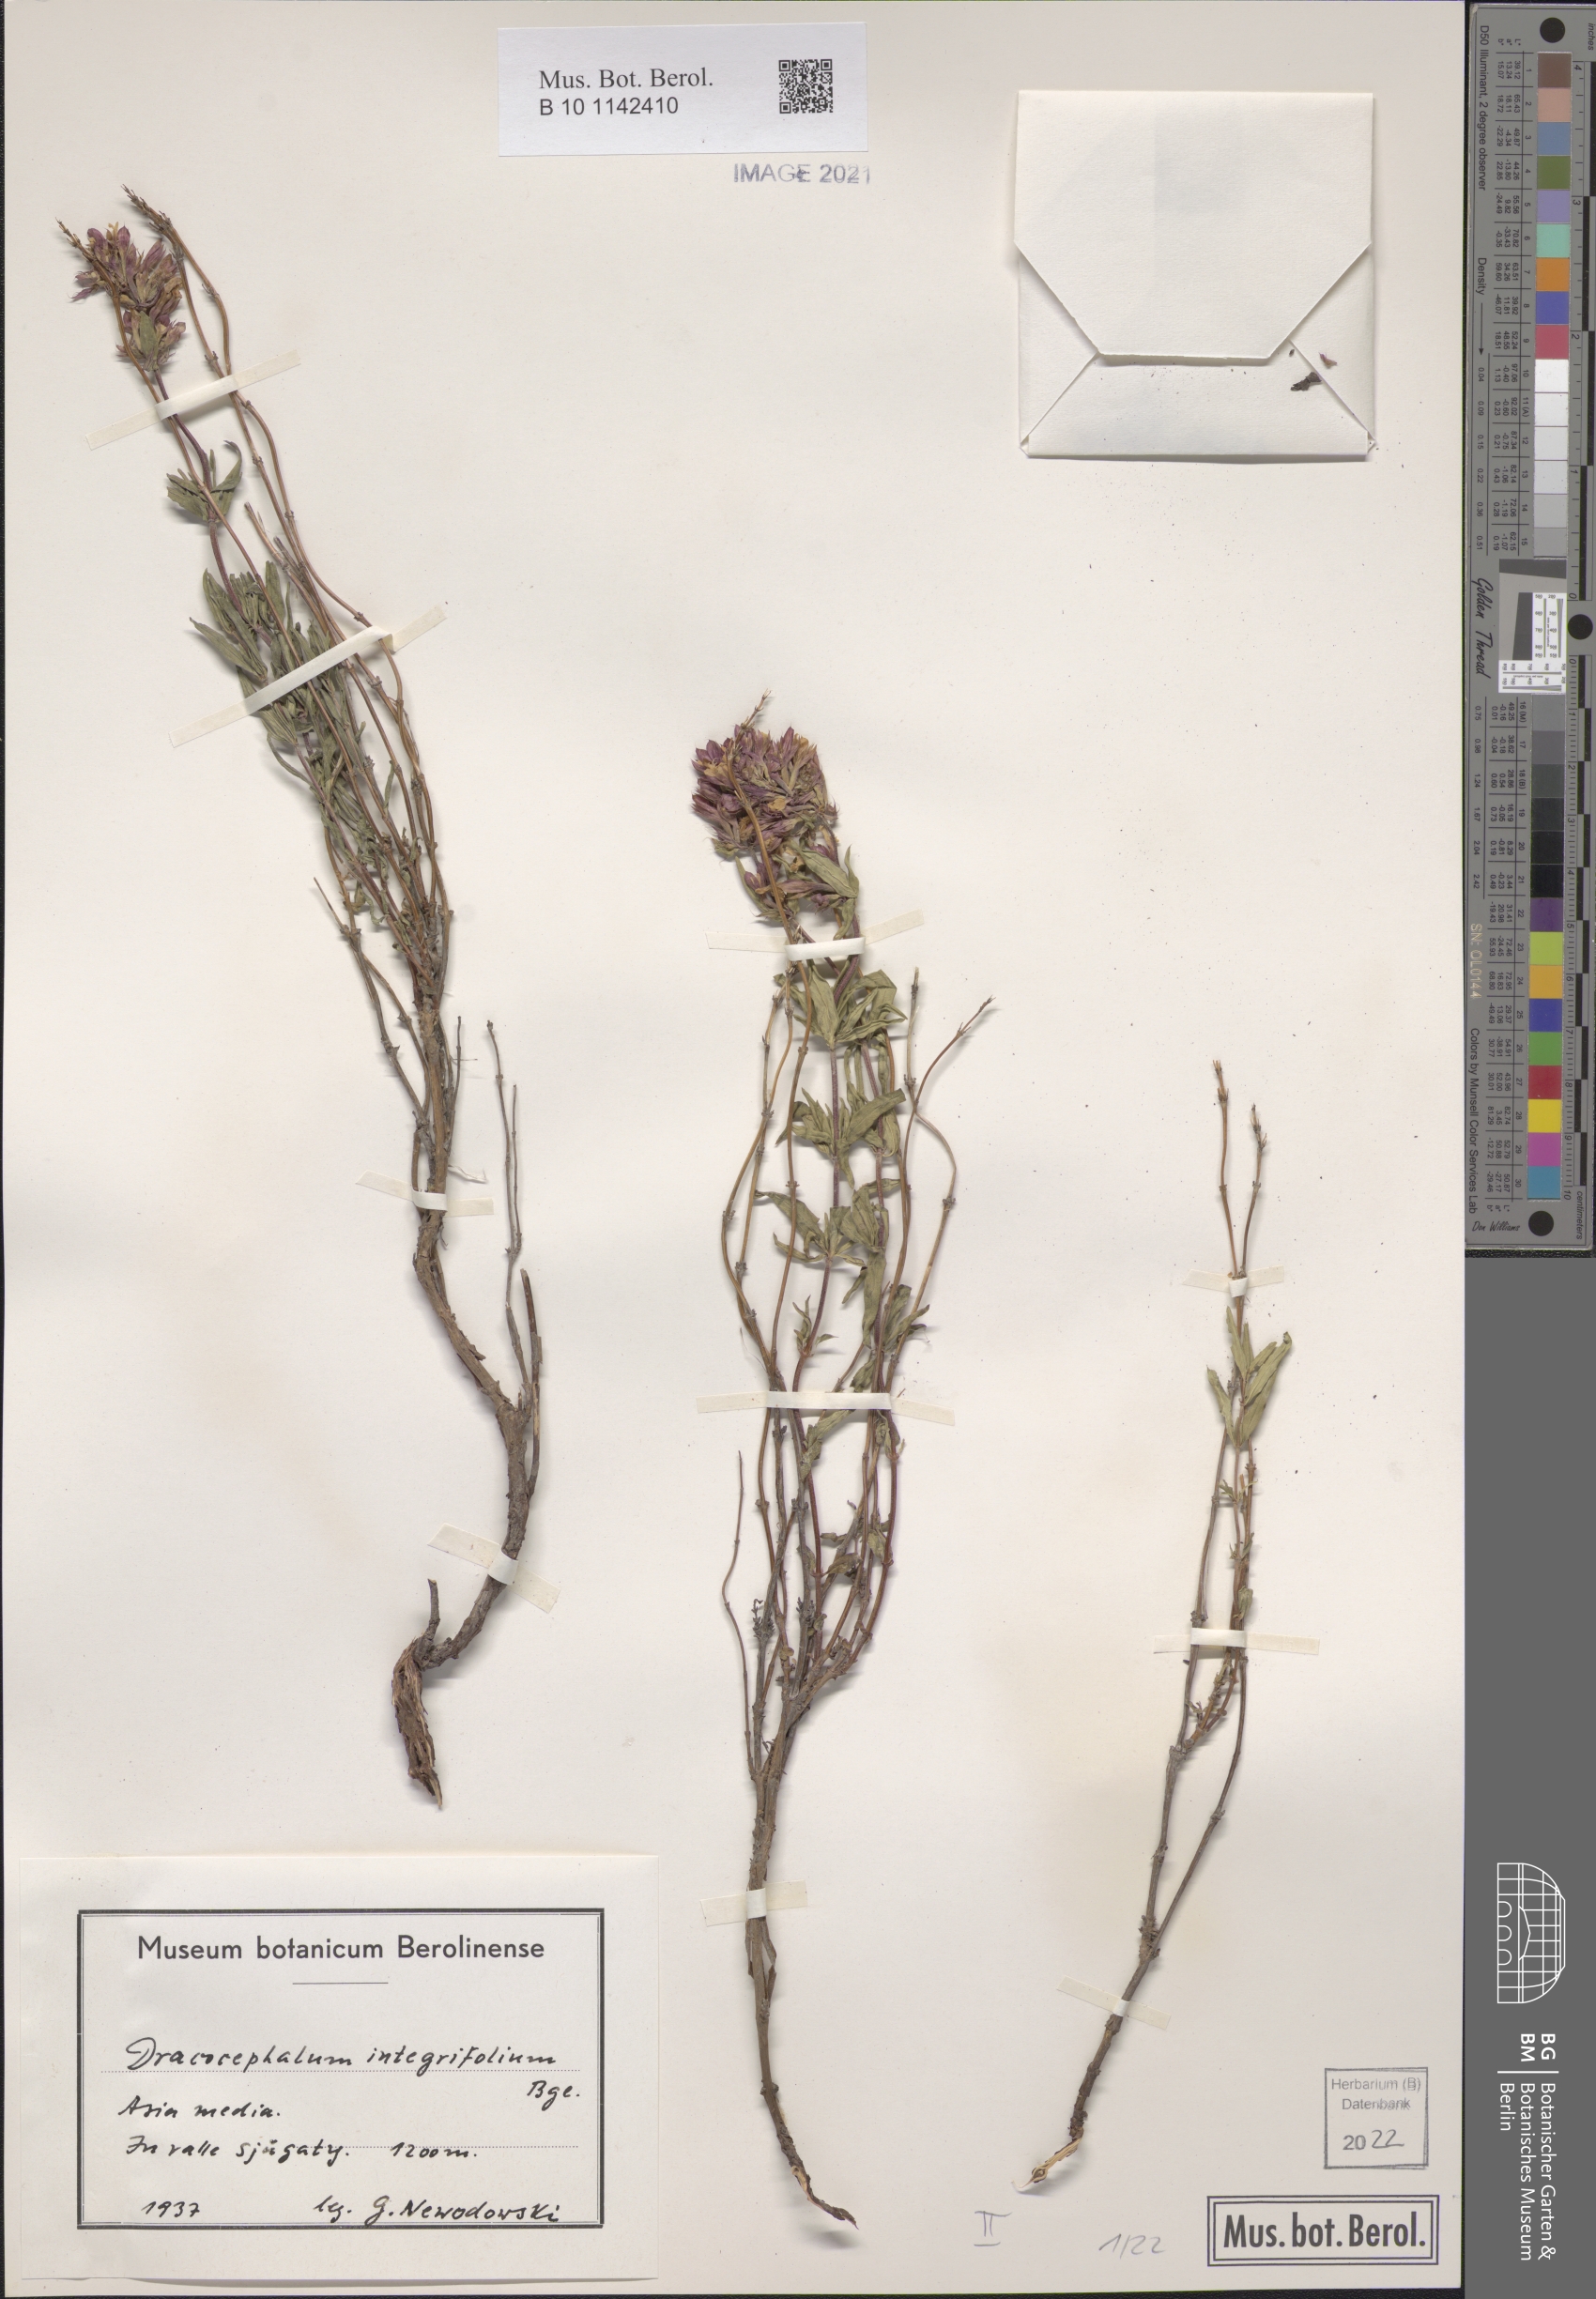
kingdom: Plantae
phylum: Tracheophyta
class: Magnoliopsida
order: Lamiales
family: Lamiaceae
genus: Dracocephalum
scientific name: Dracocephalum integrifolium
